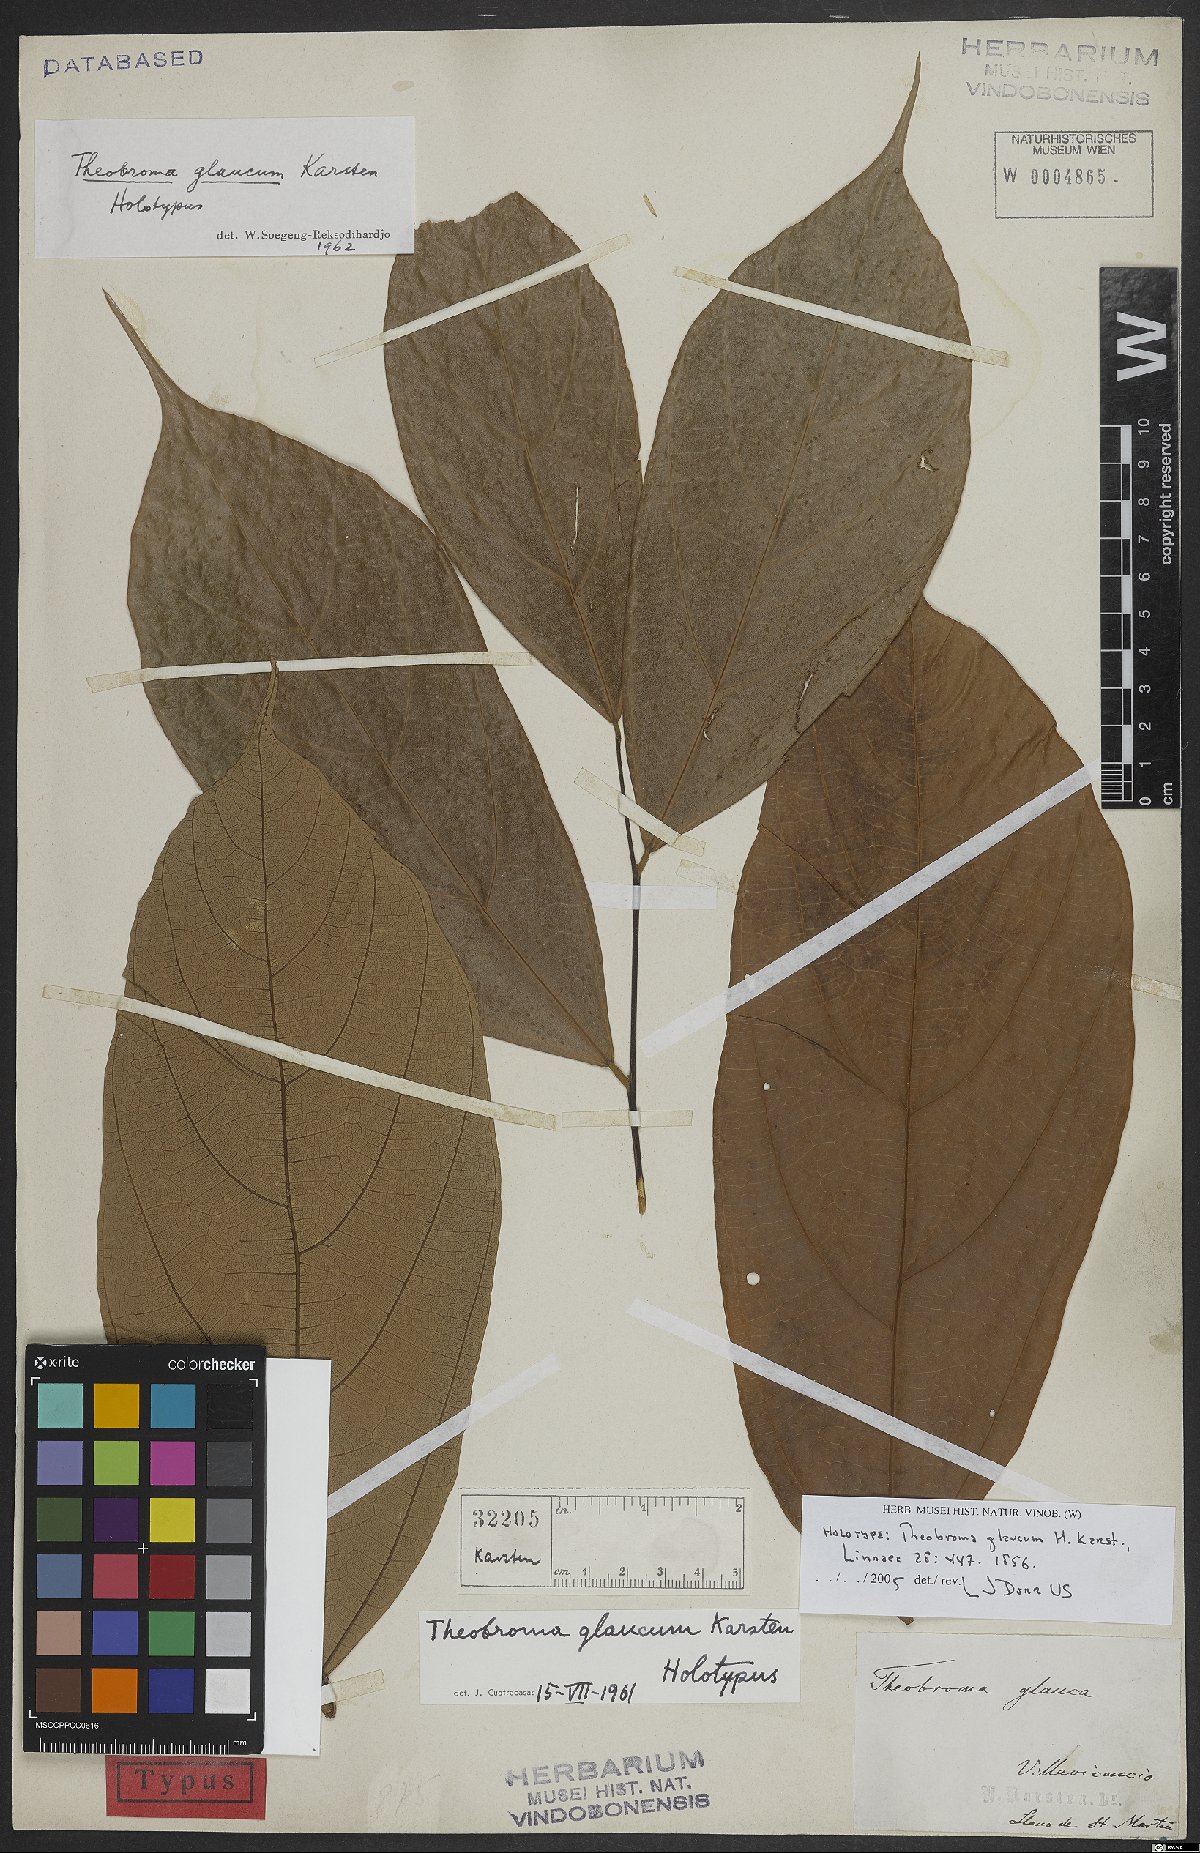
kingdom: Plantae
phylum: Tracheophyta
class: Magnoliopsida
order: Malvales
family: Malvaceae
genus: Theobroma
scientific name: Theobroma glaucum
